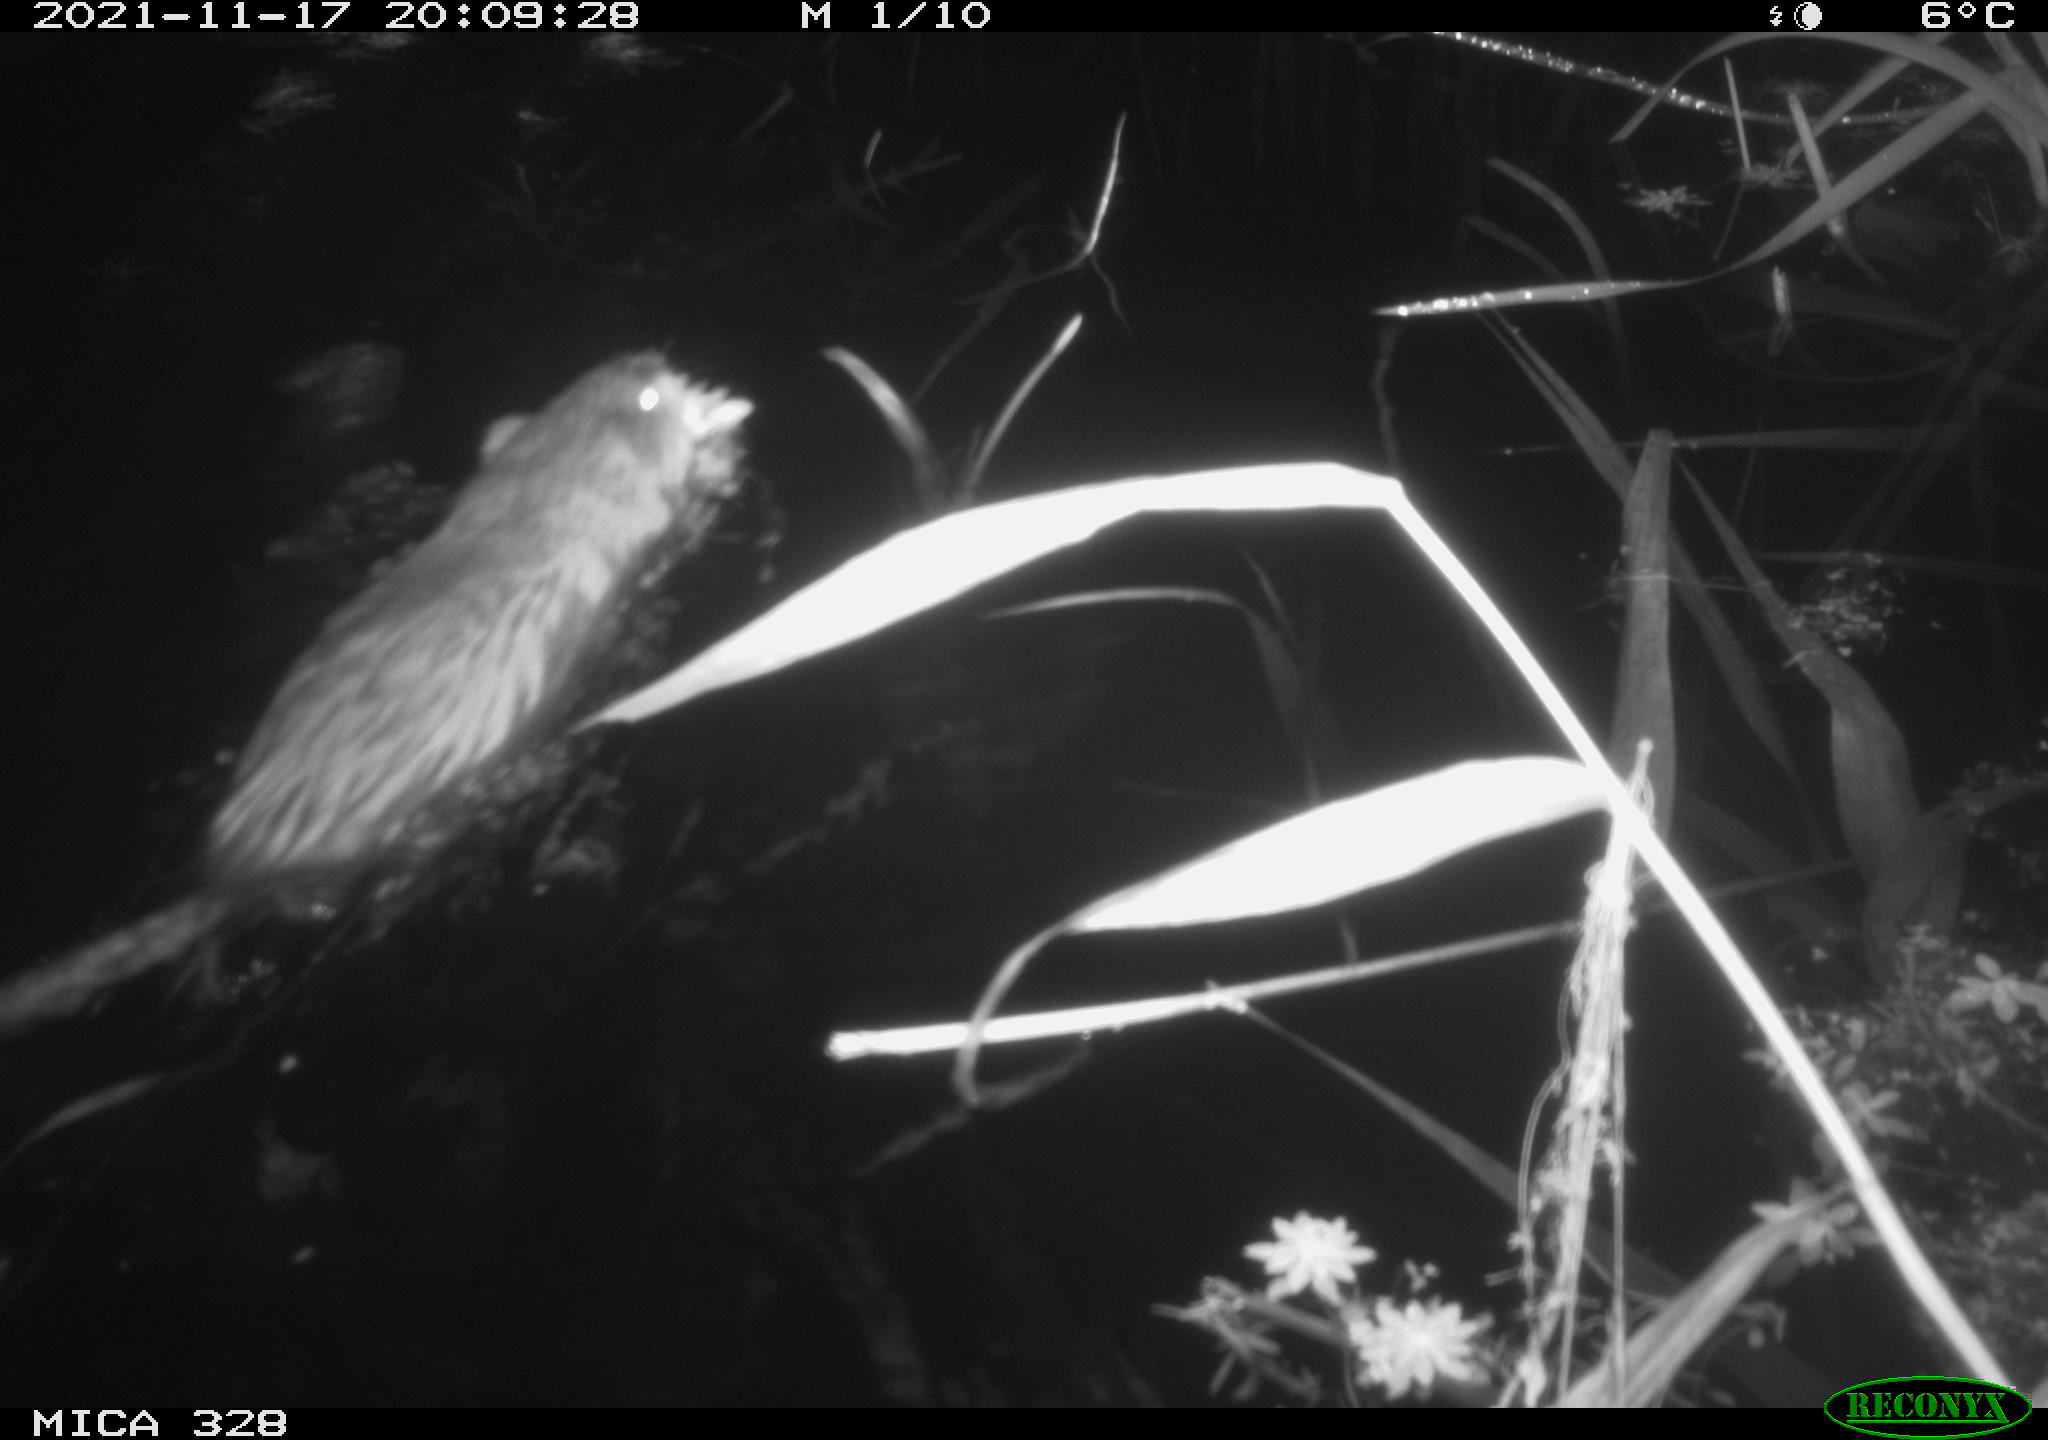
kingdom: Animalia
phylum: Chordata
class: Mammalia
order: Rodentia
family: Cricetidae
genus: Ondatra
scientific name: Ondatra zibethicus
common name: Muskrat
